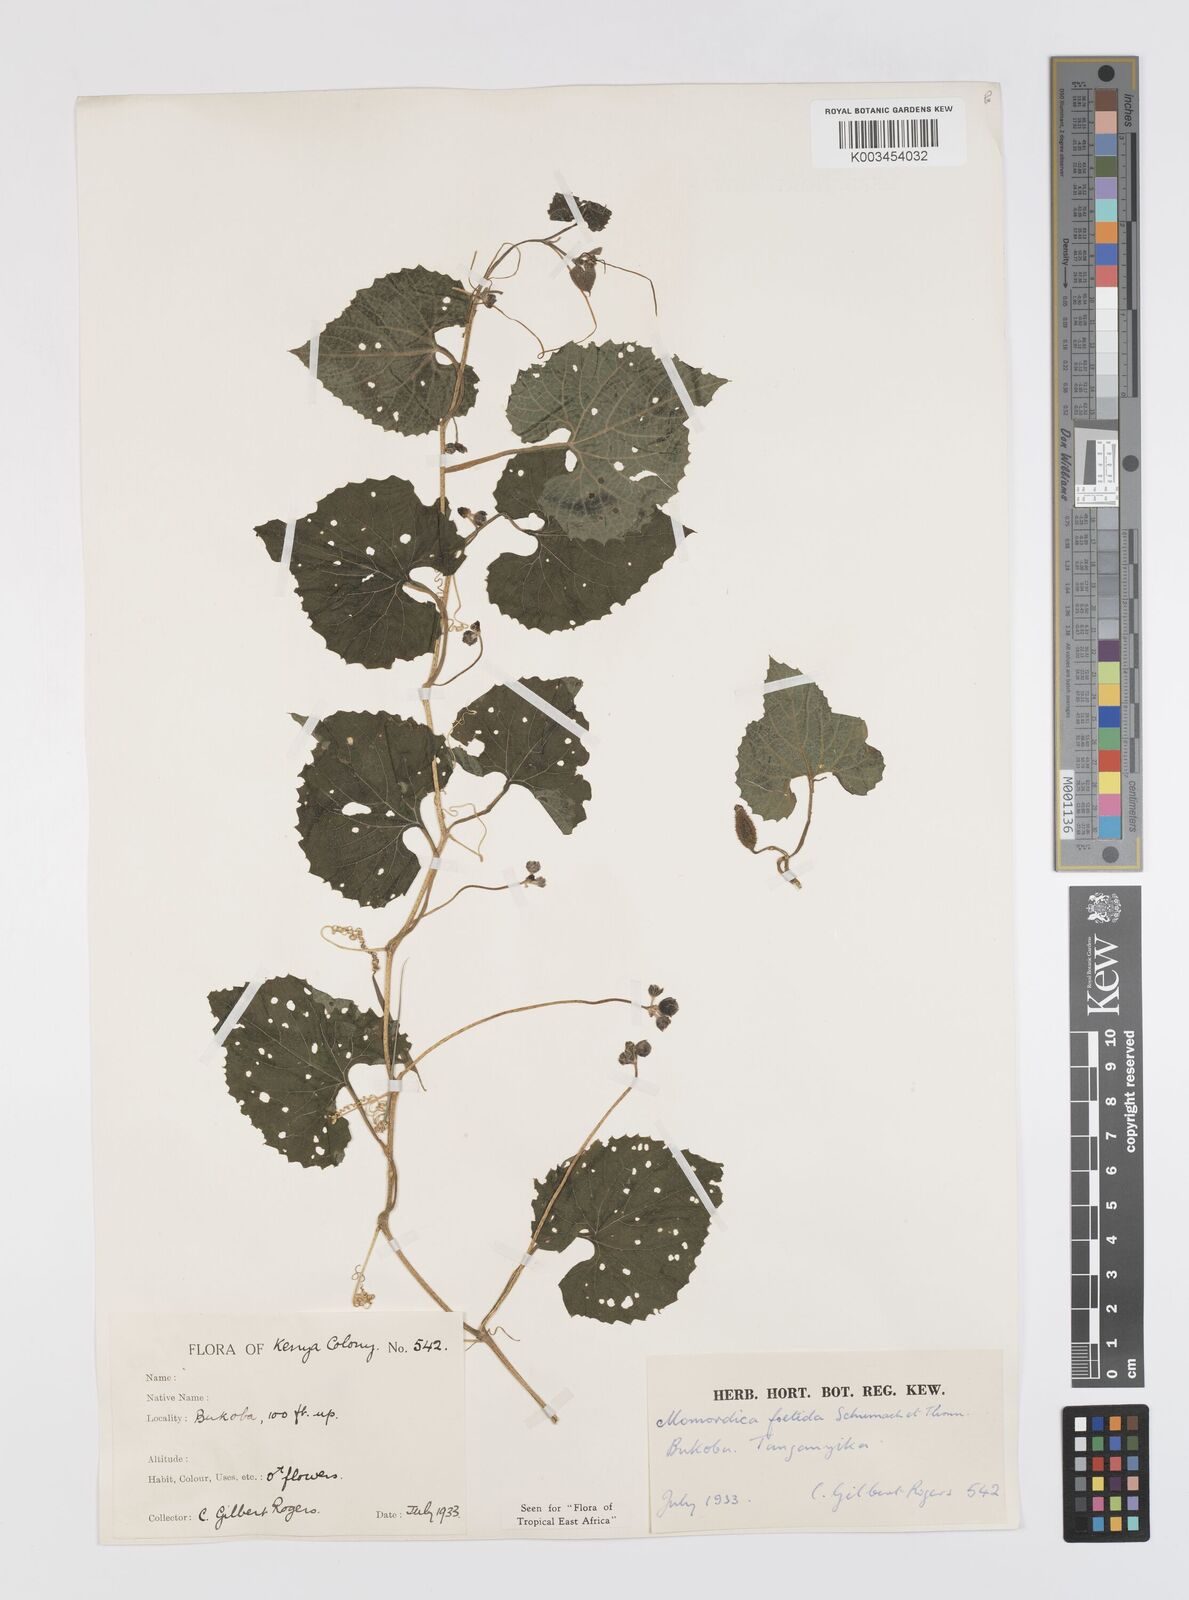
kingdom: Plantae
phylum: Tracheophyta
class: Magnoliopsida
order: Cucurbitales
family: Cucurbitaceae
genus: Momordica
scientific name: Momordica foetida
